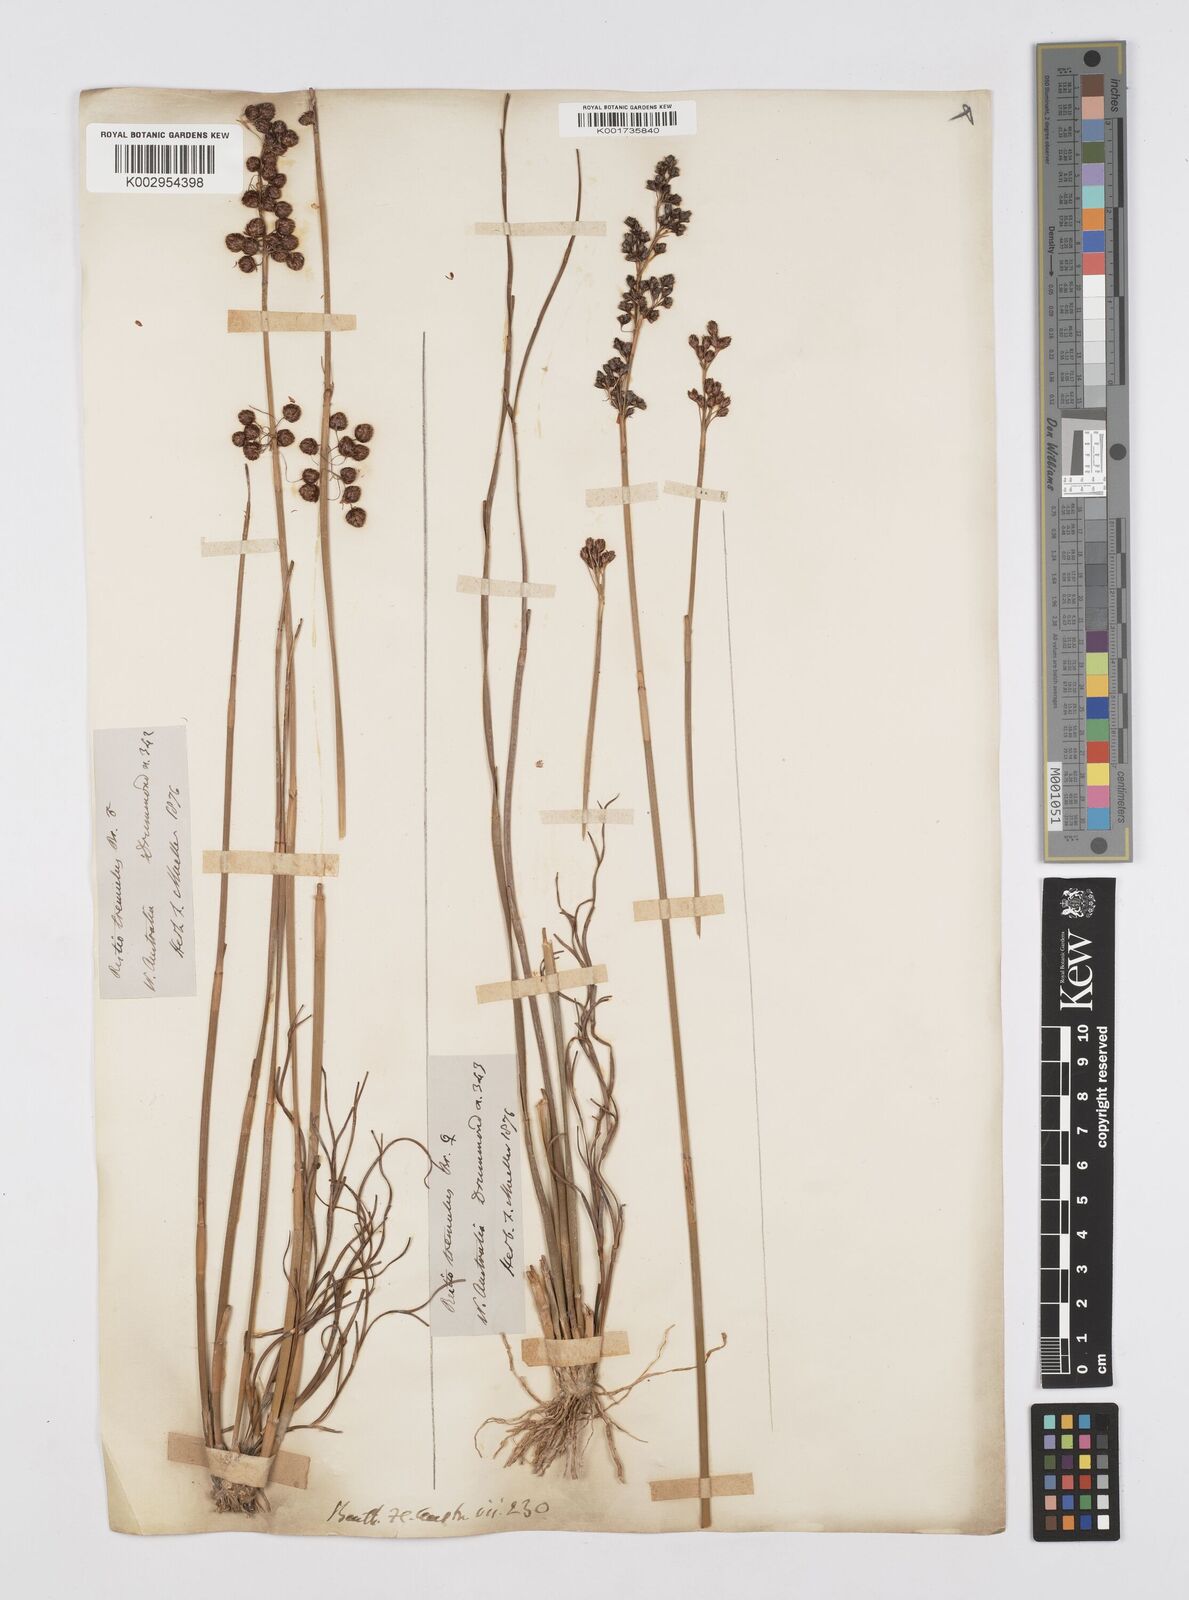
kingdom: Plantae
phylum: Tracheophyta
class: Liliopsida
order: Poales
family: Restionaceae
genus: Tremulina
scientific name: Tremulina tremula
